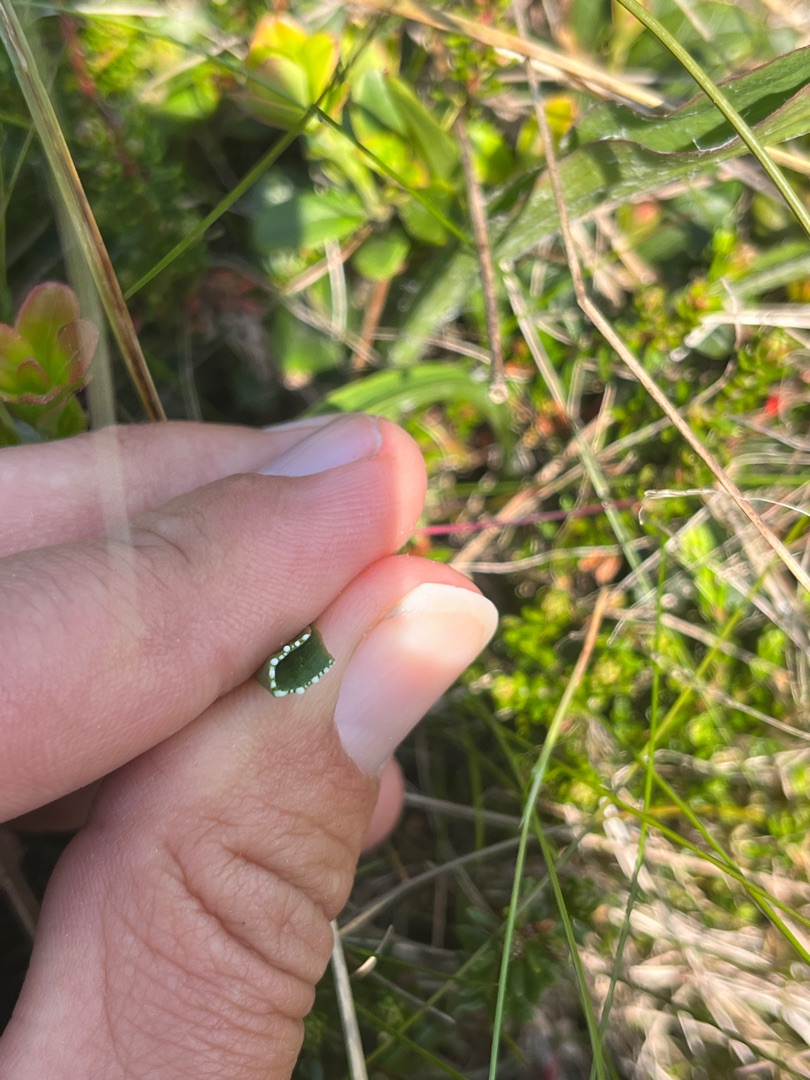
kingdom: Plantae
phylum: Tracheophyta
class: Magnoliopsida
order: Asterales
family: Asteraceae
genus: Scorzonera
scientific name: Scorzonera humilis
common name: Lav skorsoner
